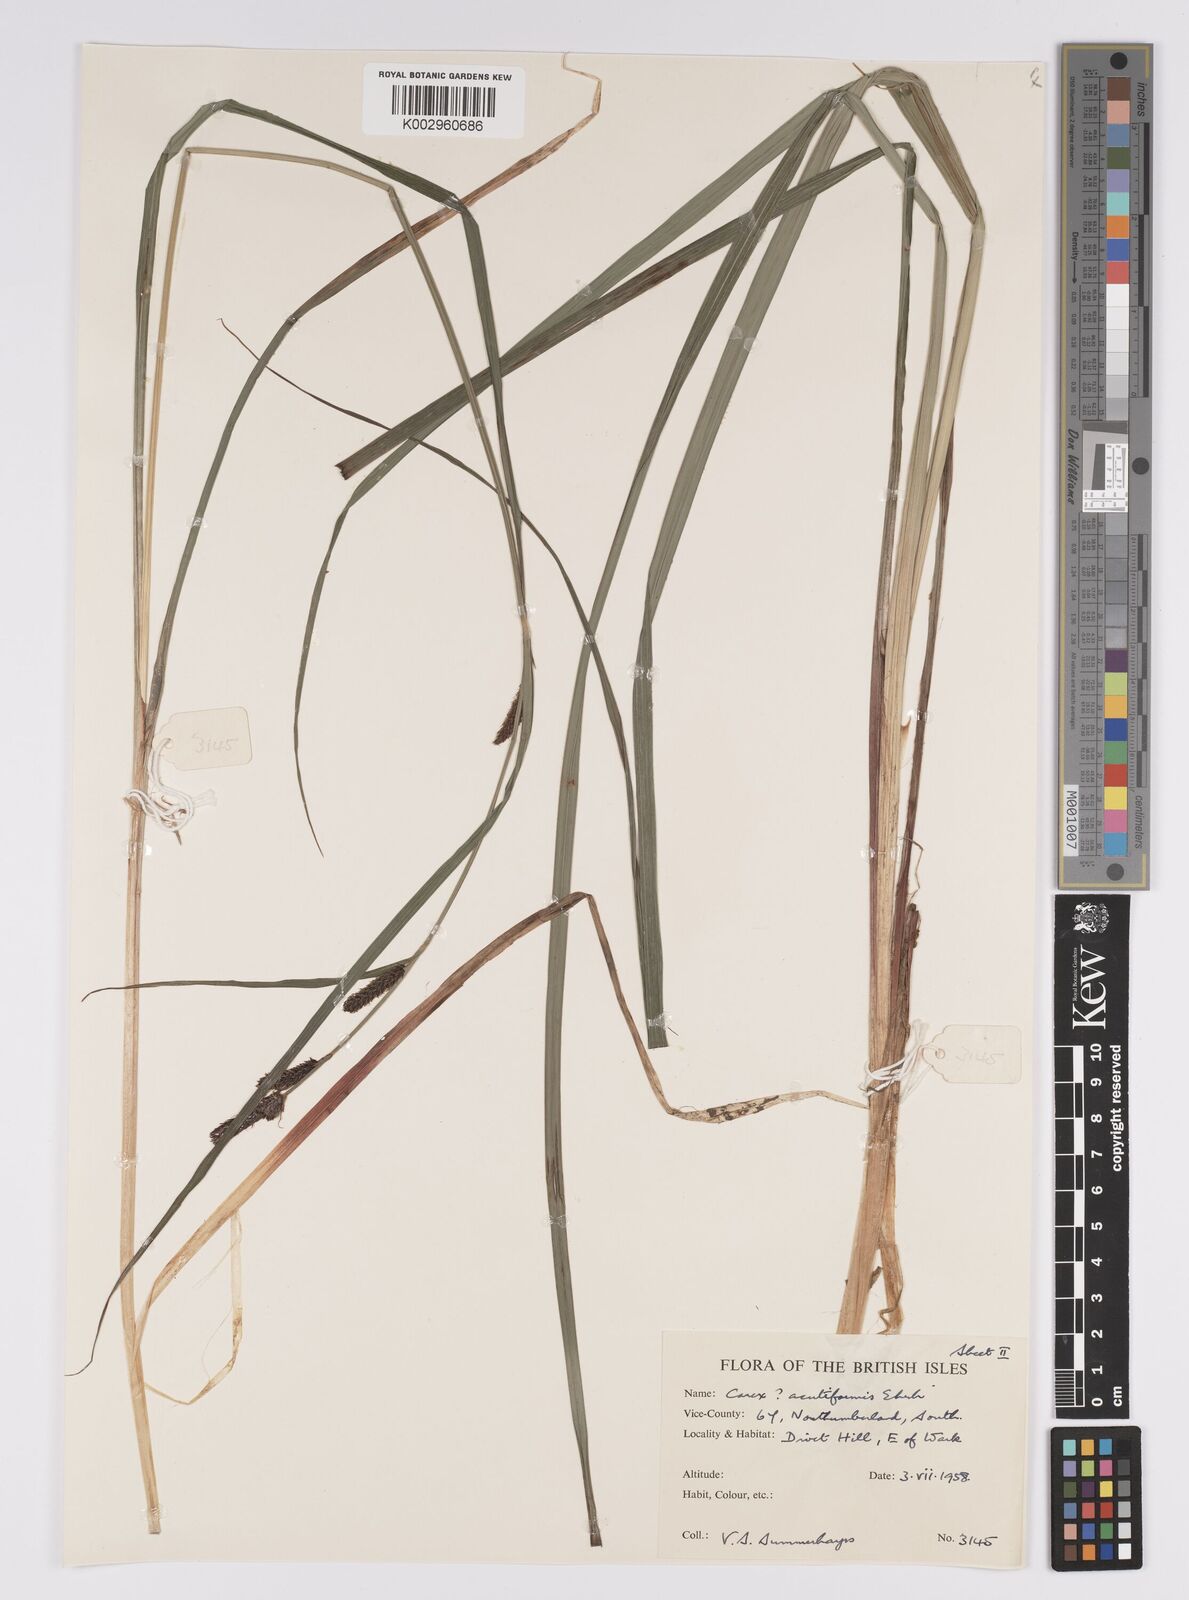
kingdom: Plantae
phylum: Tracheophyta
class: Liliopsida
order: Poales
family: Cyperaceae
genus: Carex
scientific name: Carex acutiformis
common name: Lesser pond-sedge
